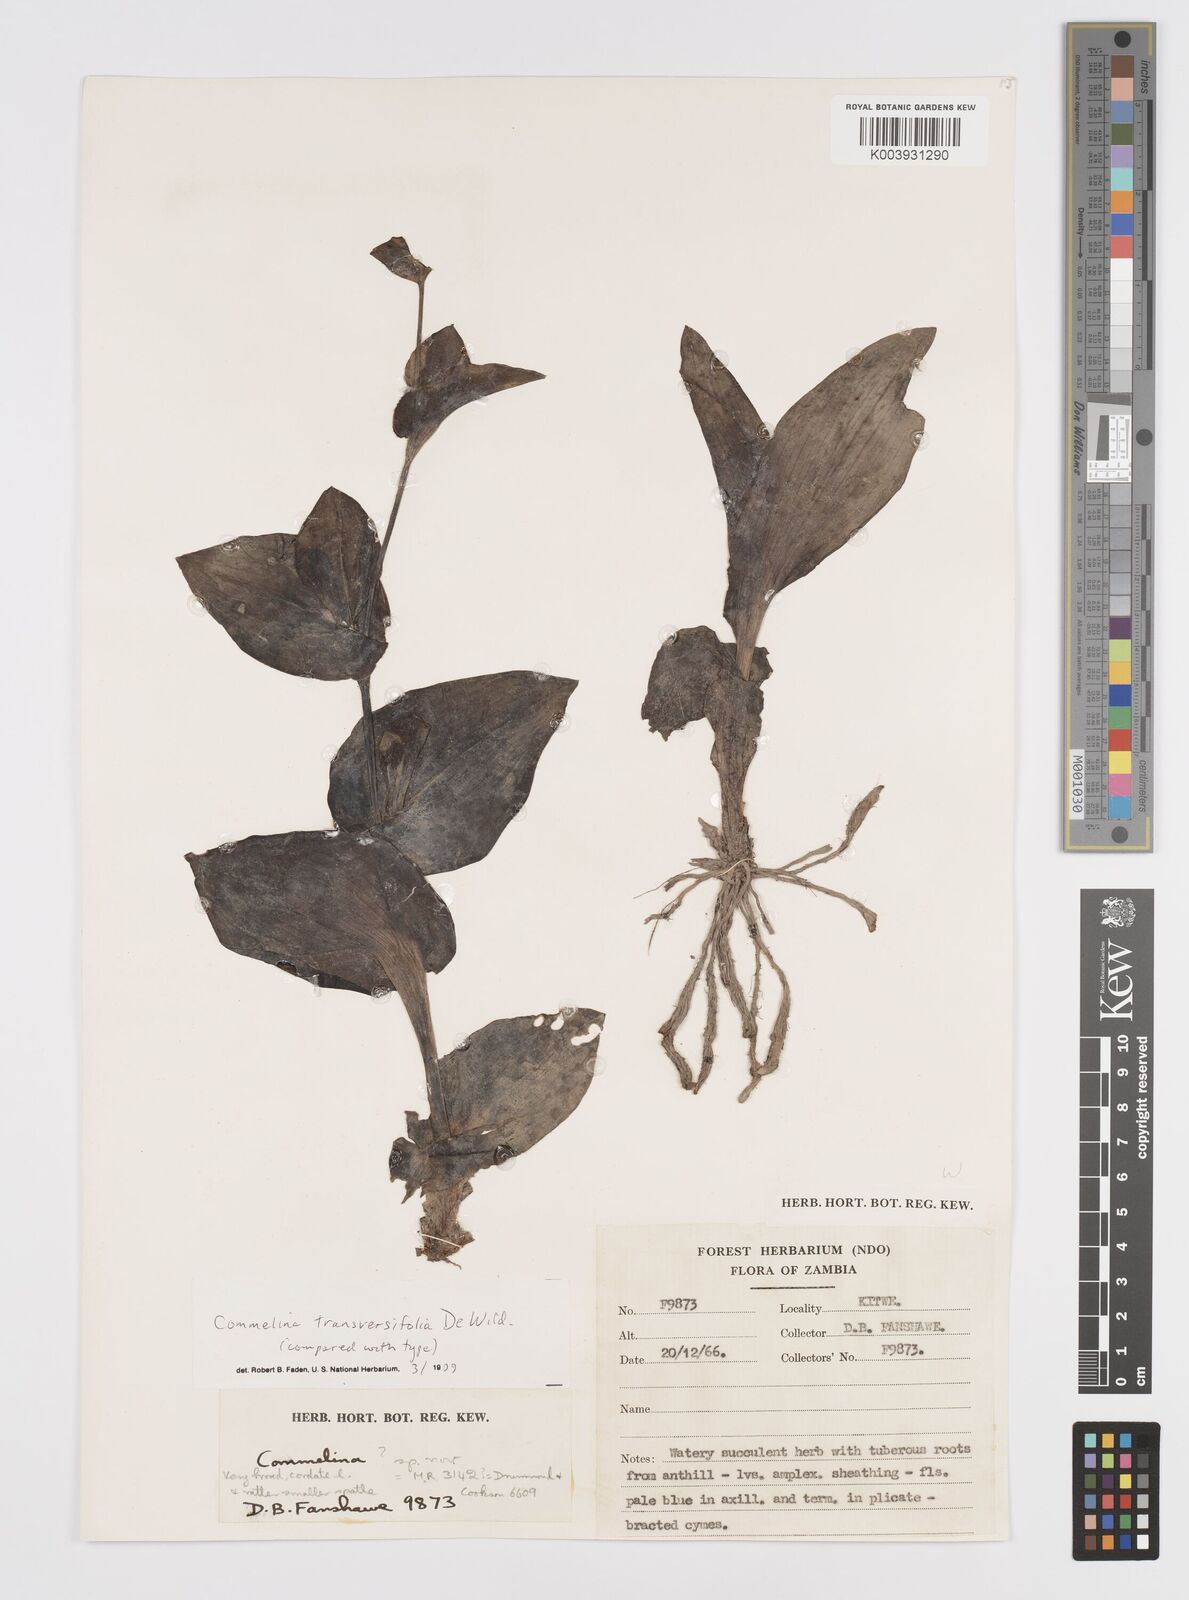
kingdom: Plantae
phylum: Tracheophyta
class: Liliopsida
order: Commelinales
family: Commelinaceae
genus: Commelina
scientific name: Commelina transversifolia
